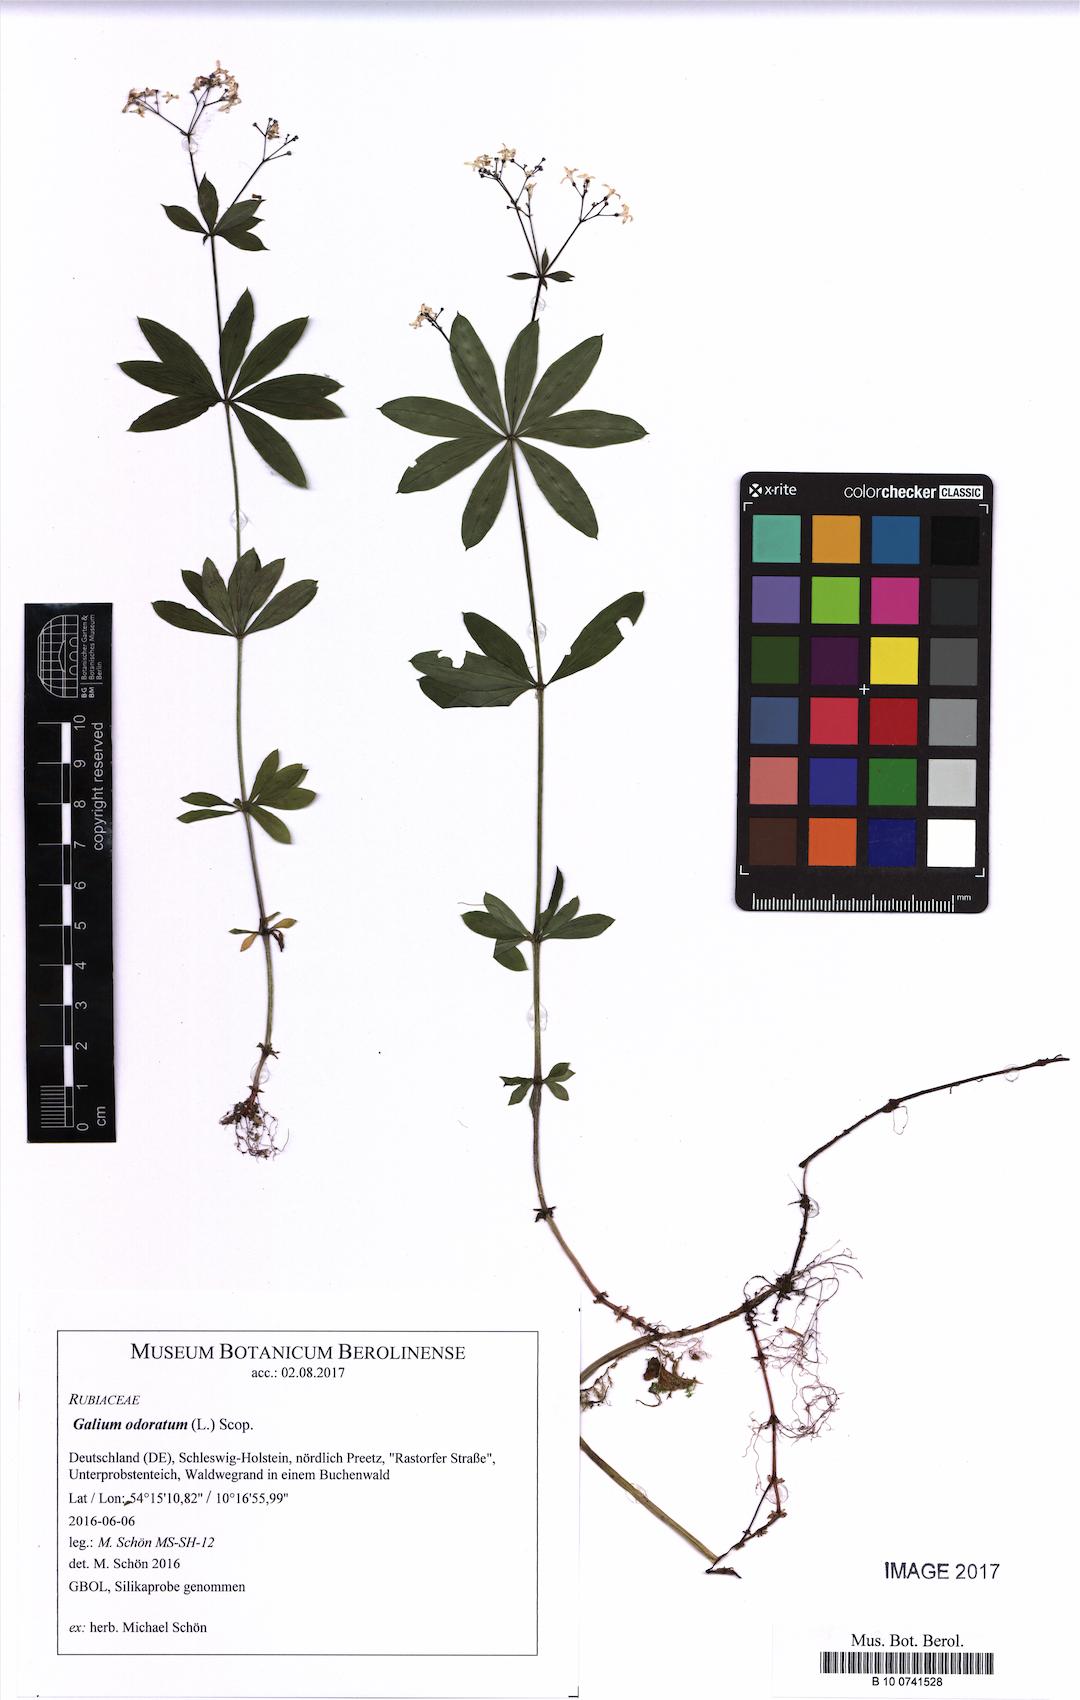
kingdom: Plantae
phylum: Tracheophyta
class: Magnoliopsida
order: Gentianales
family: Rubiaceae
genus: Galium
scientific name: Galium odoratum
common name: Sweet woodruff
